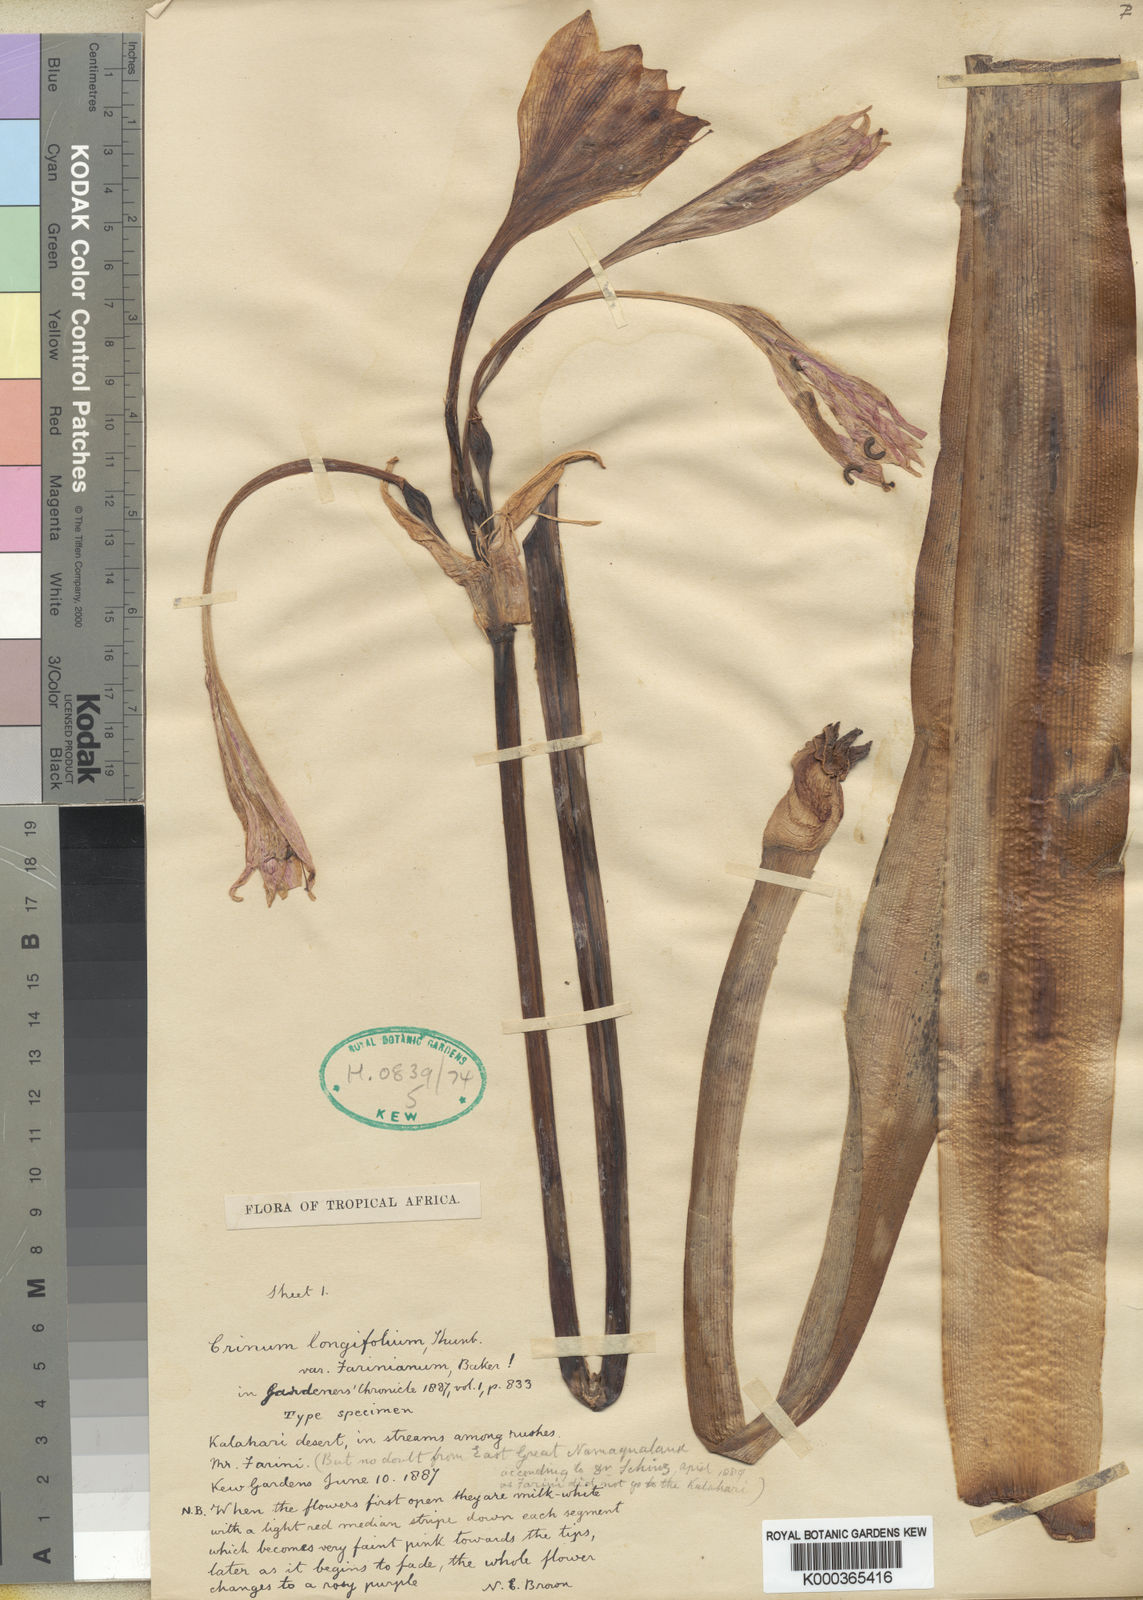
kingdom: Plantae
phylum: Tracheophyta
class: Liliopsida
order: Asparagales
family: Amaryllidaceae
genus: Crinum
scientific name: Crinum bulbispermum
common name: Hardy swamplily
